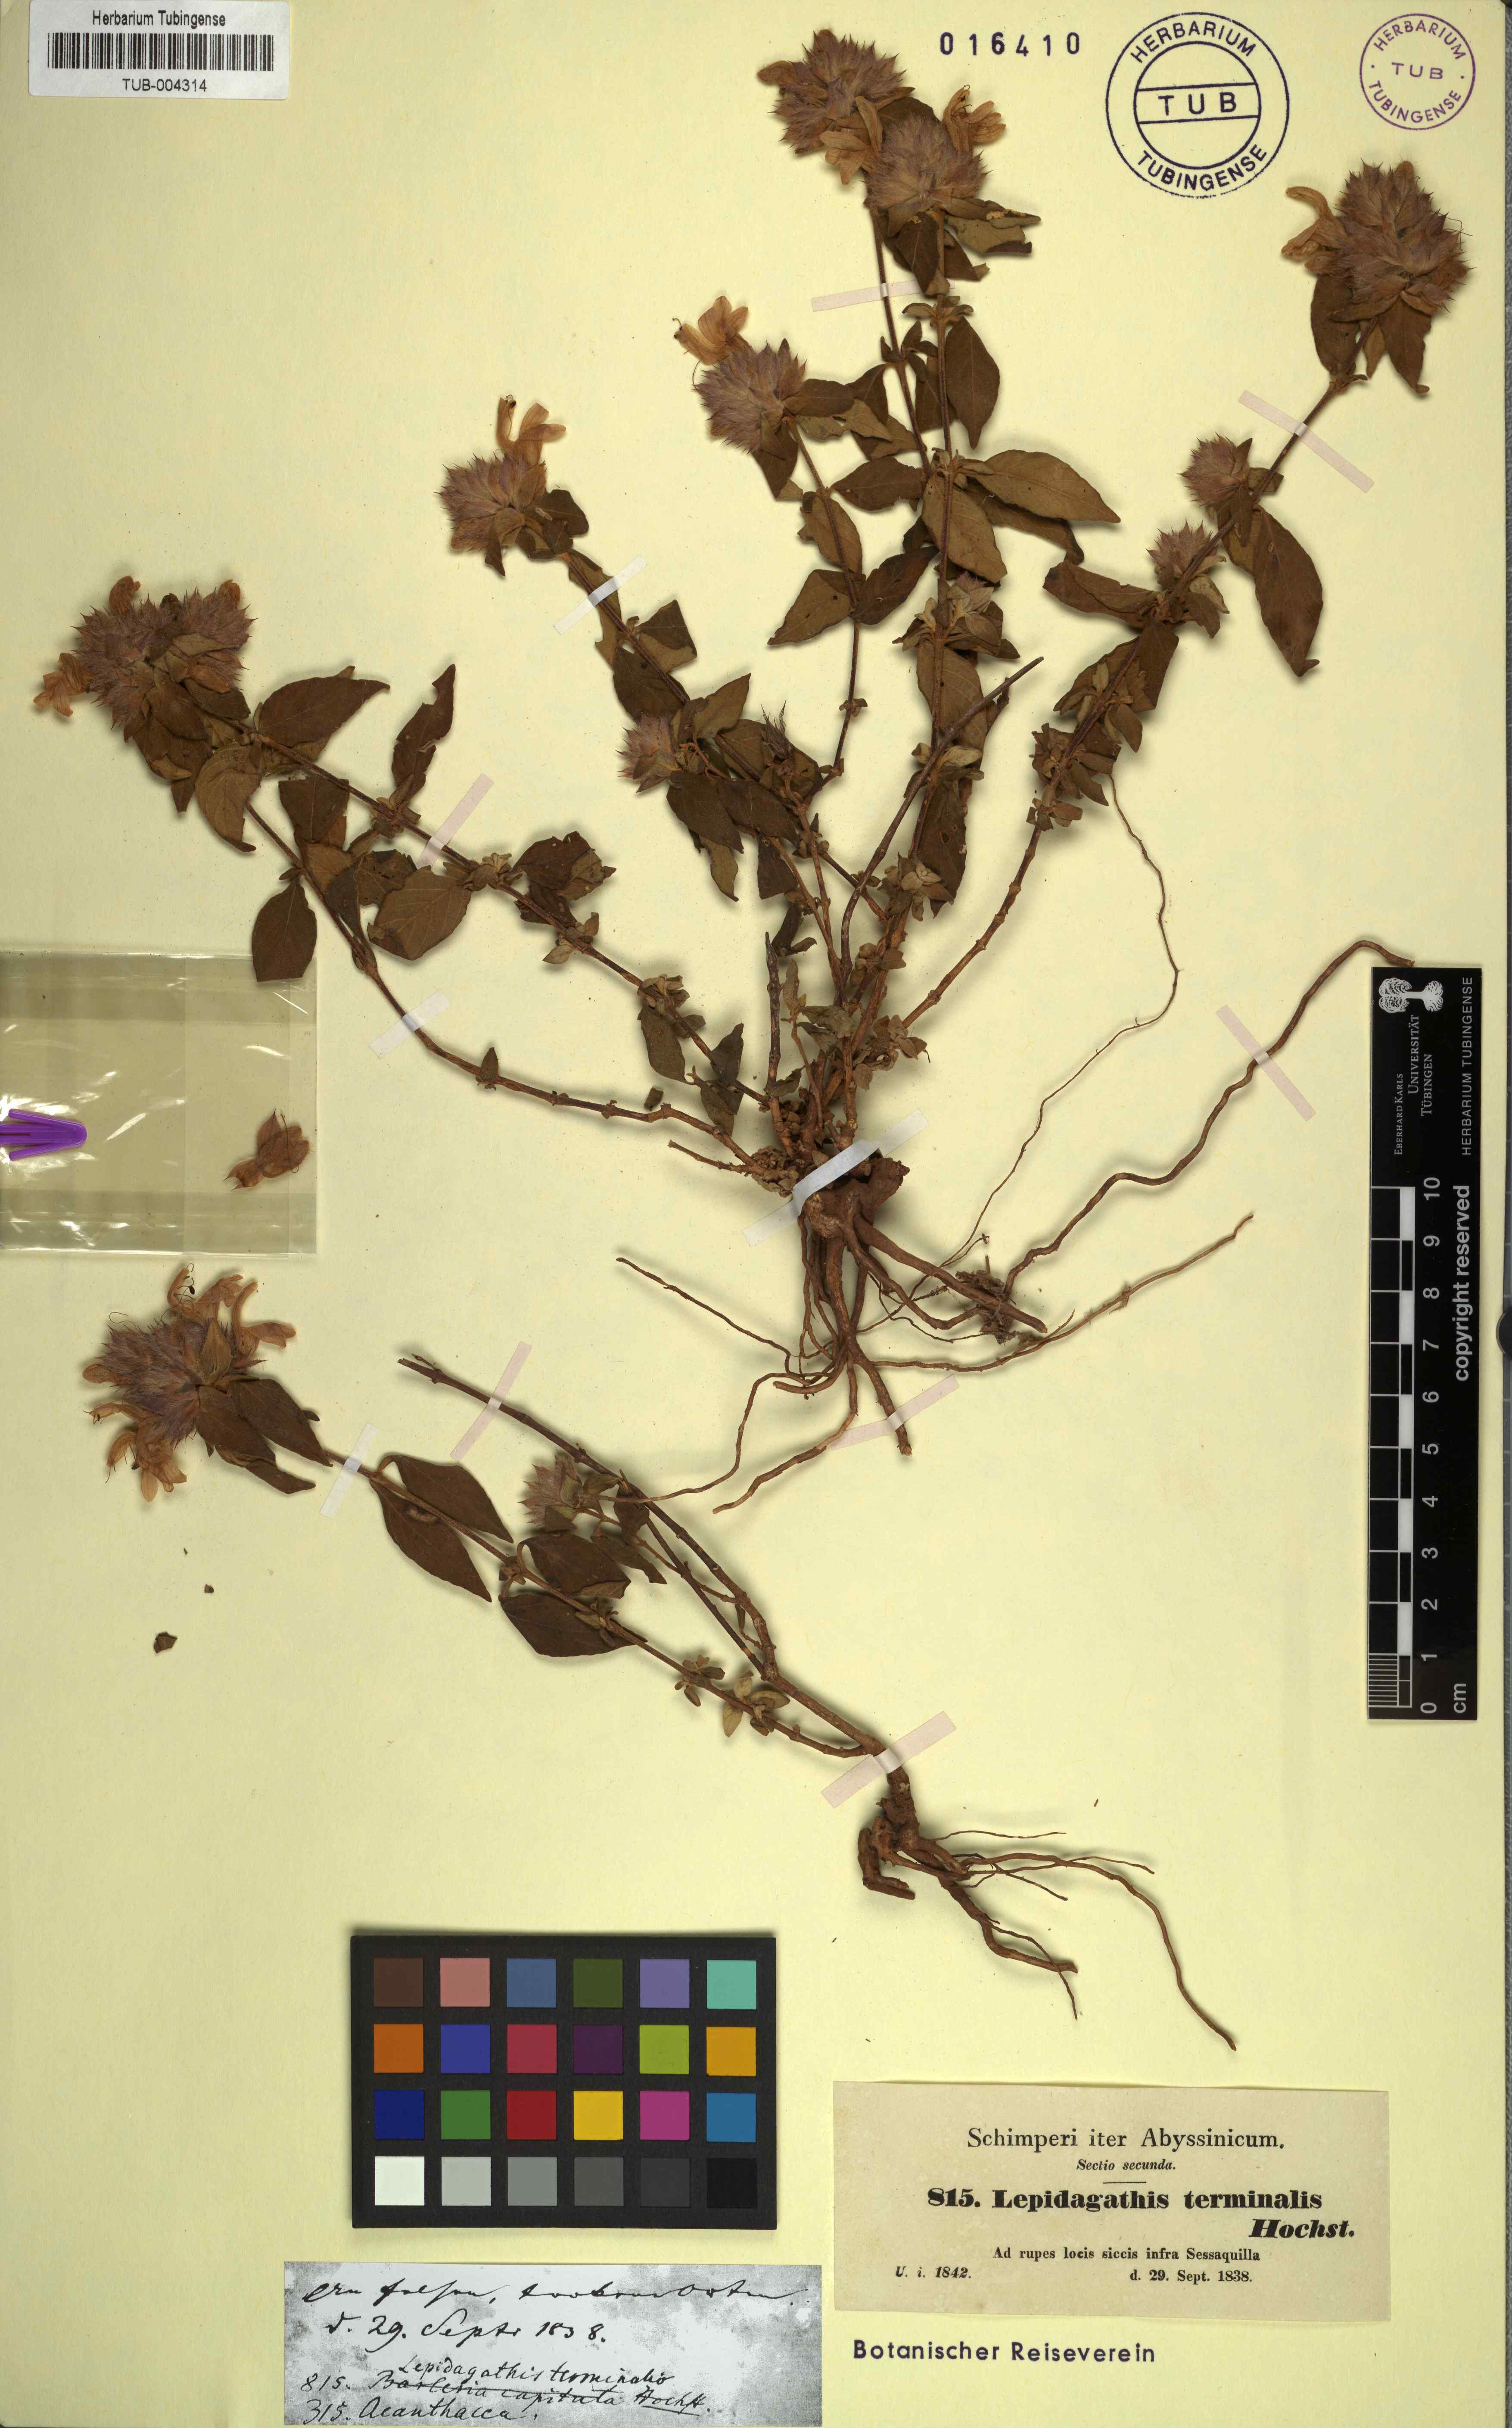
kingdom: Plantae
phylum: Tracheophyta
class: Magnoliopsida
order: Lamiales
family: Acanthaceae
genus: Lepidagathis
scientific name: Lepidagathis scariosa
